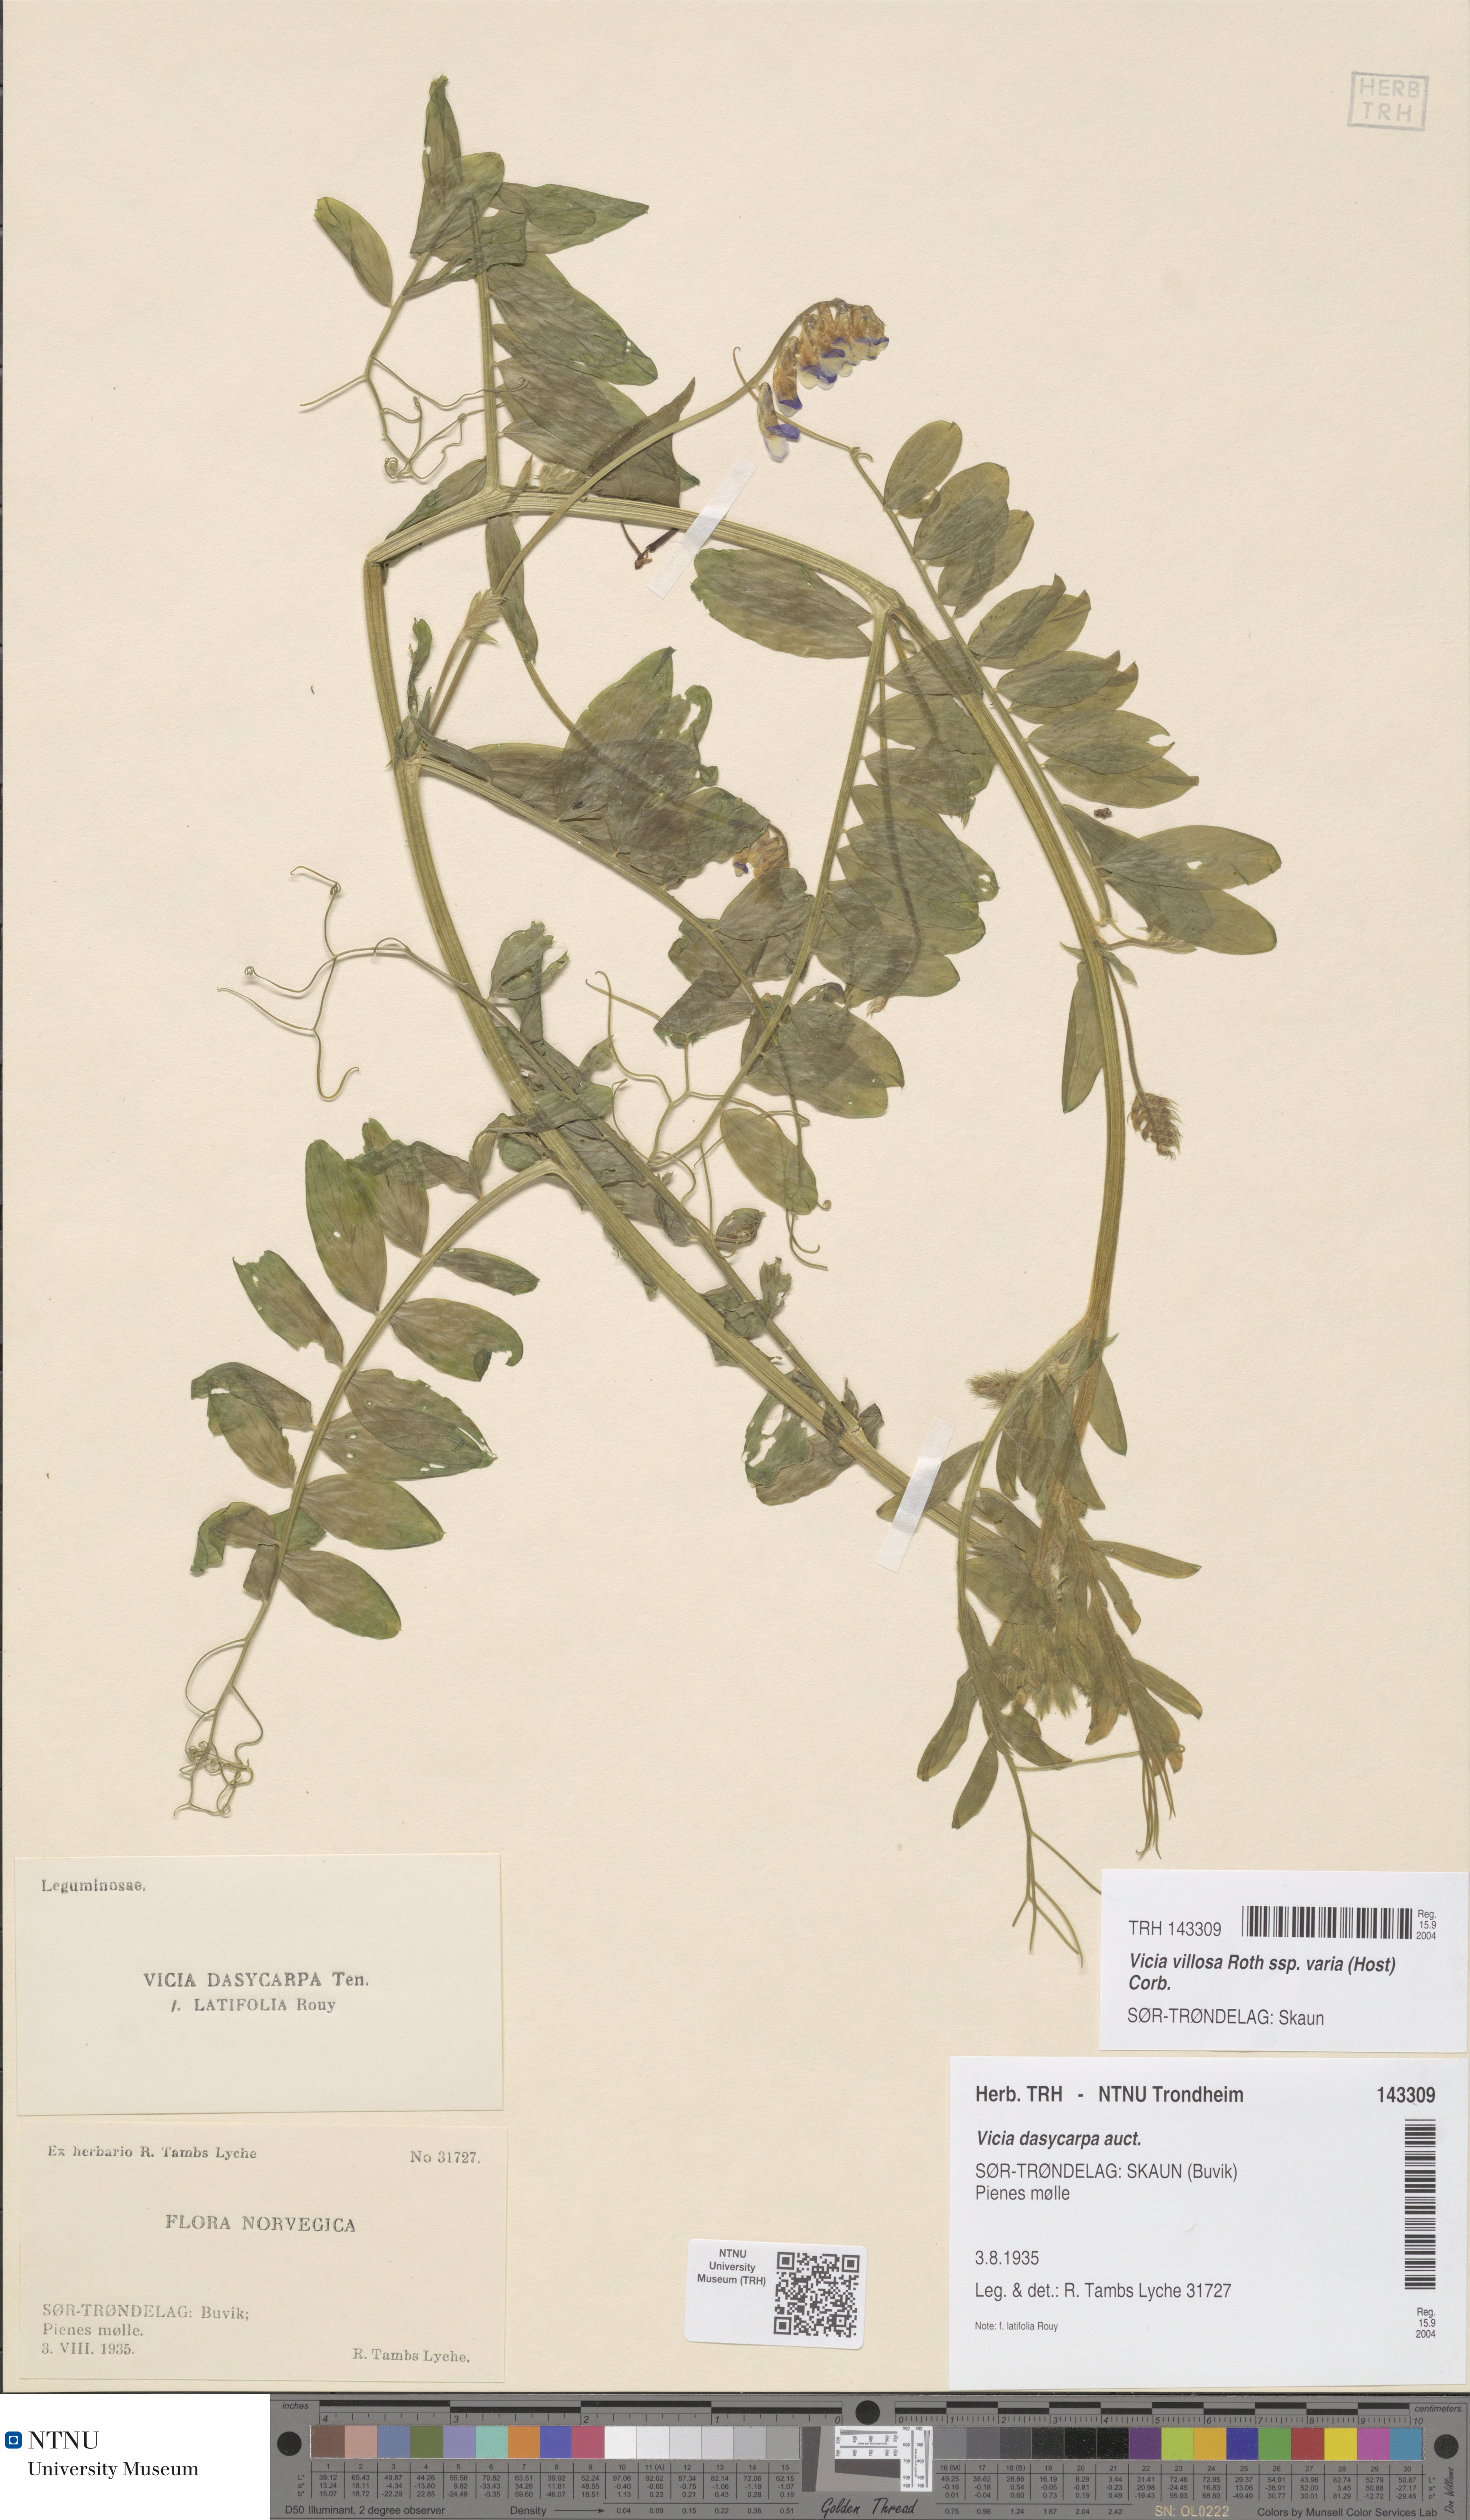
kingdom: Plantae
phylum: Tracheophyta
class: Magnoliopsida
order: Fabales
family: Fabaceae
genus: Vicia
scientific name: Vicia villosa
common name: Fodder vetch
